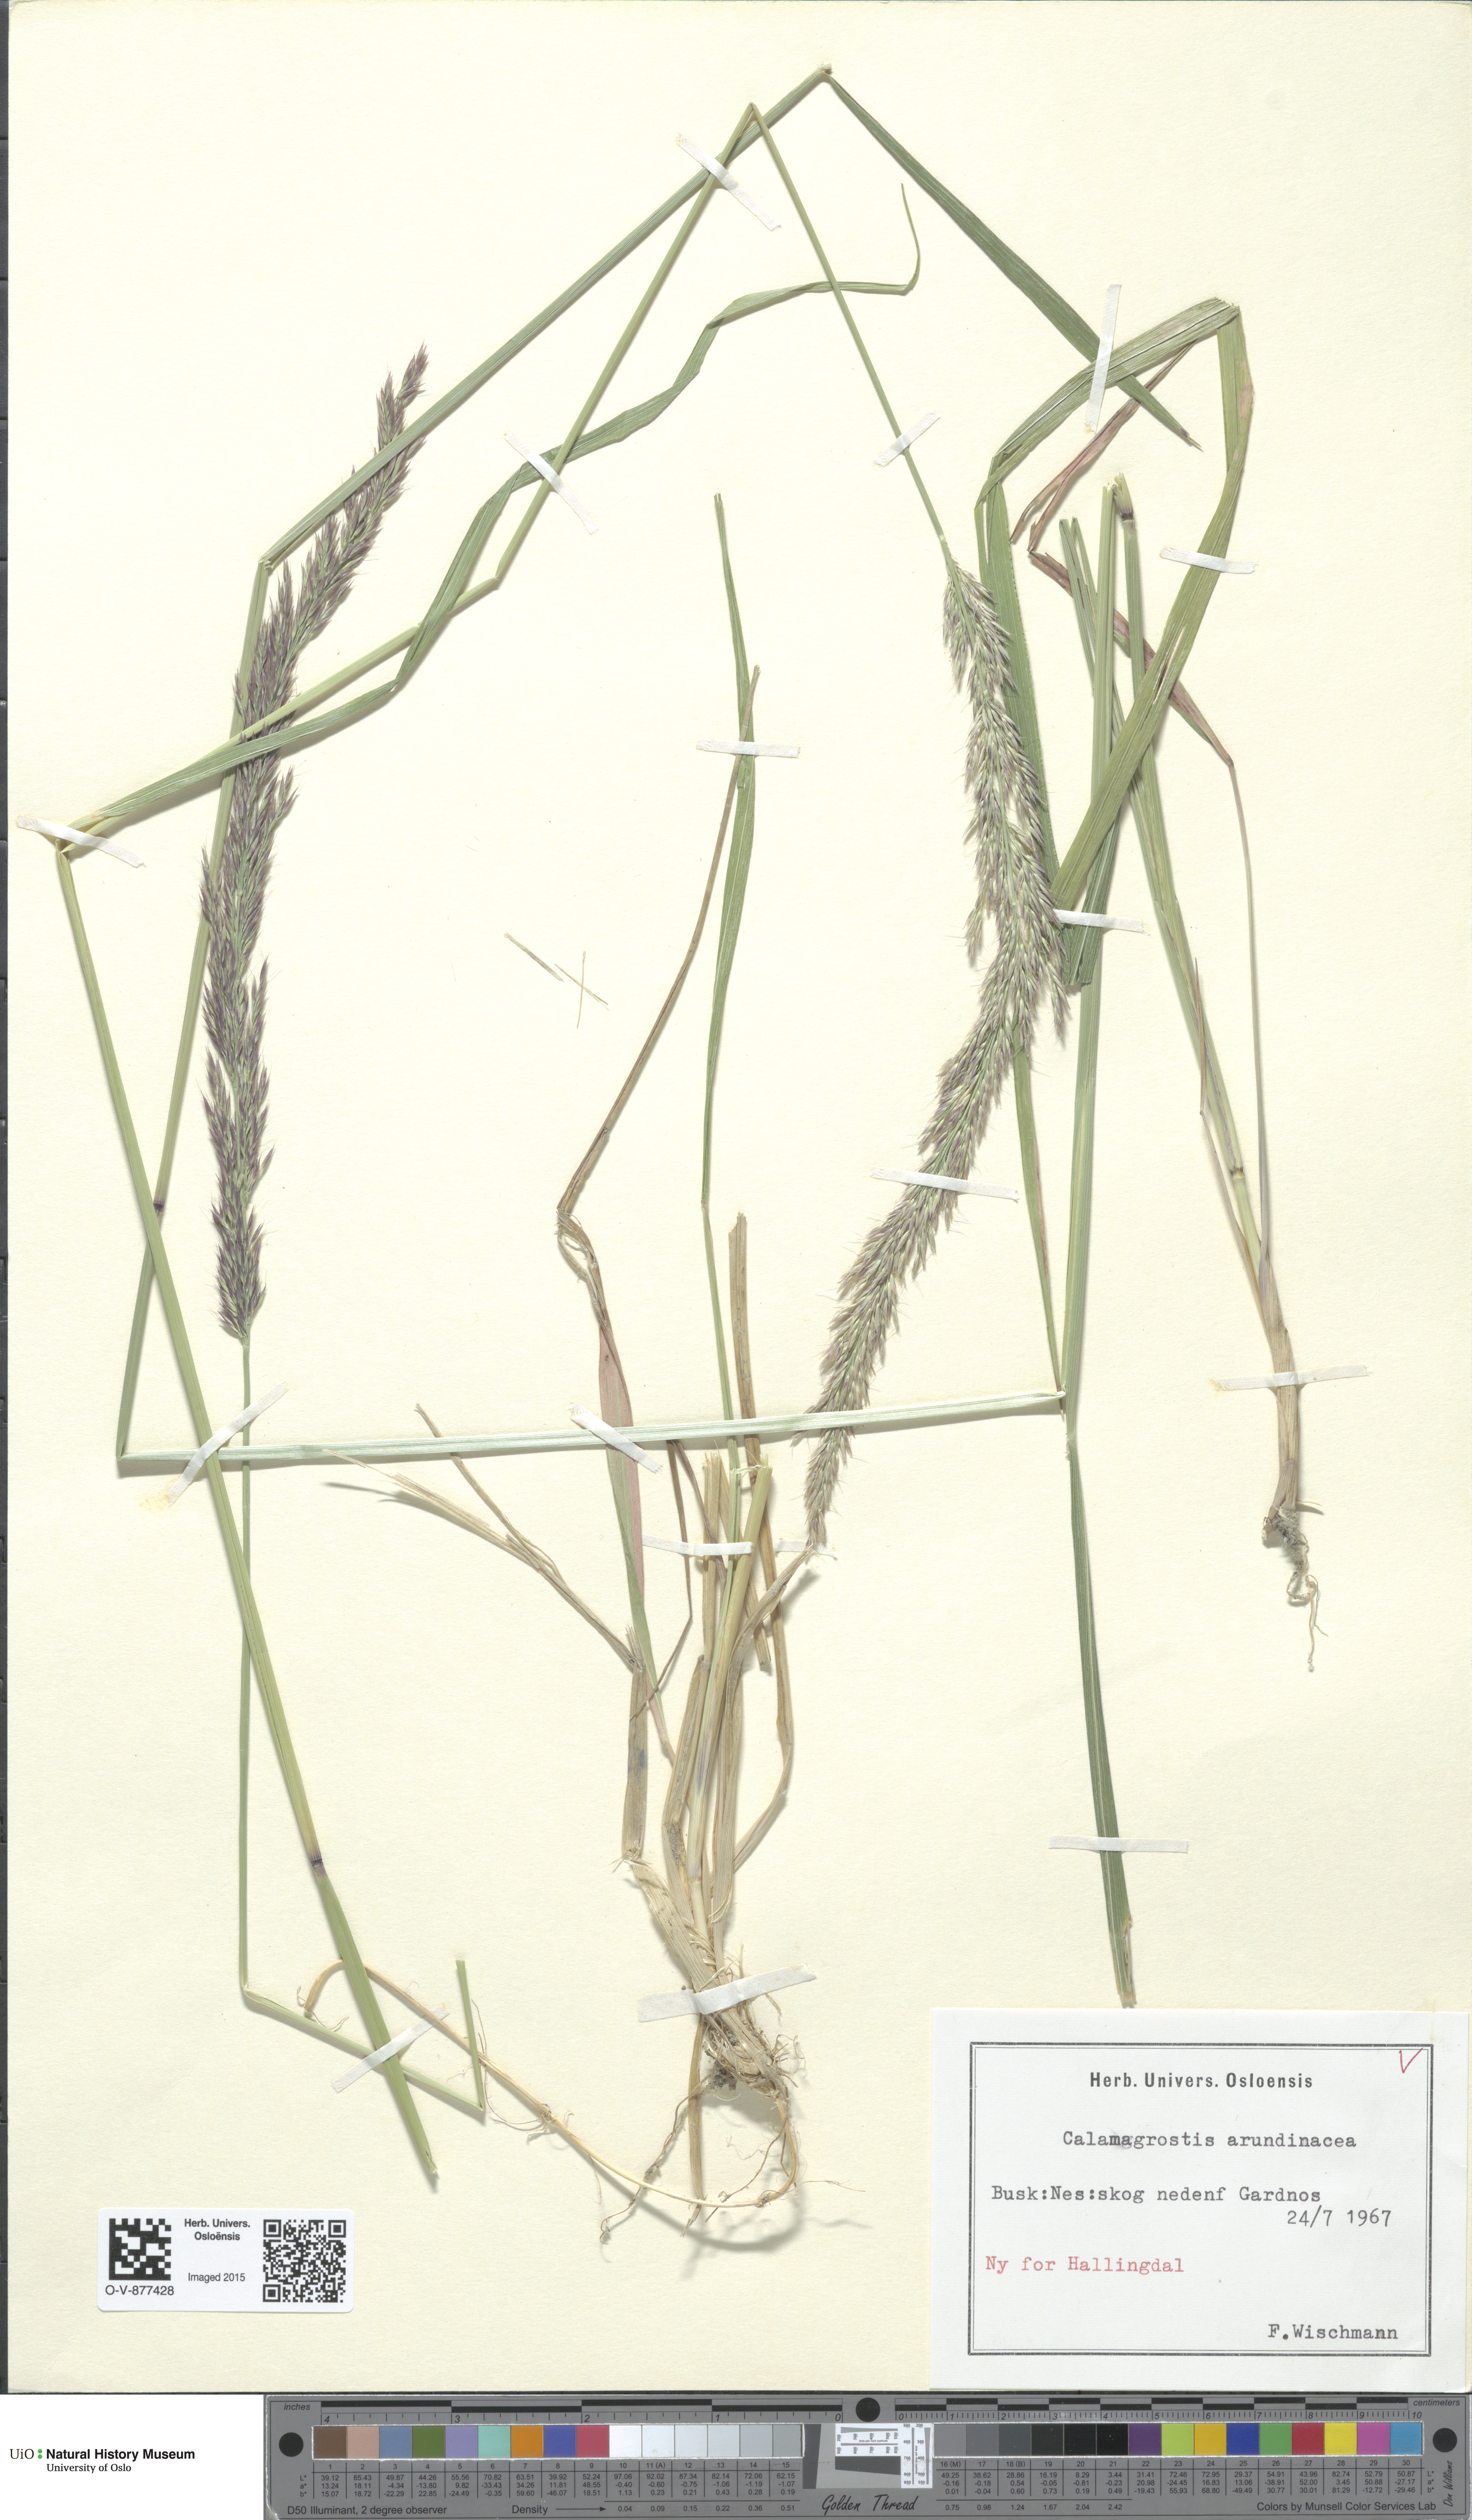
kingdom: Plantae
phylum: Tracheophyta
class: Liliopsida
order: Poales
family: Poaceae
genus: Calamagrostis
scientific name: Calamagrostis arundinacea
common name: Metskastik
